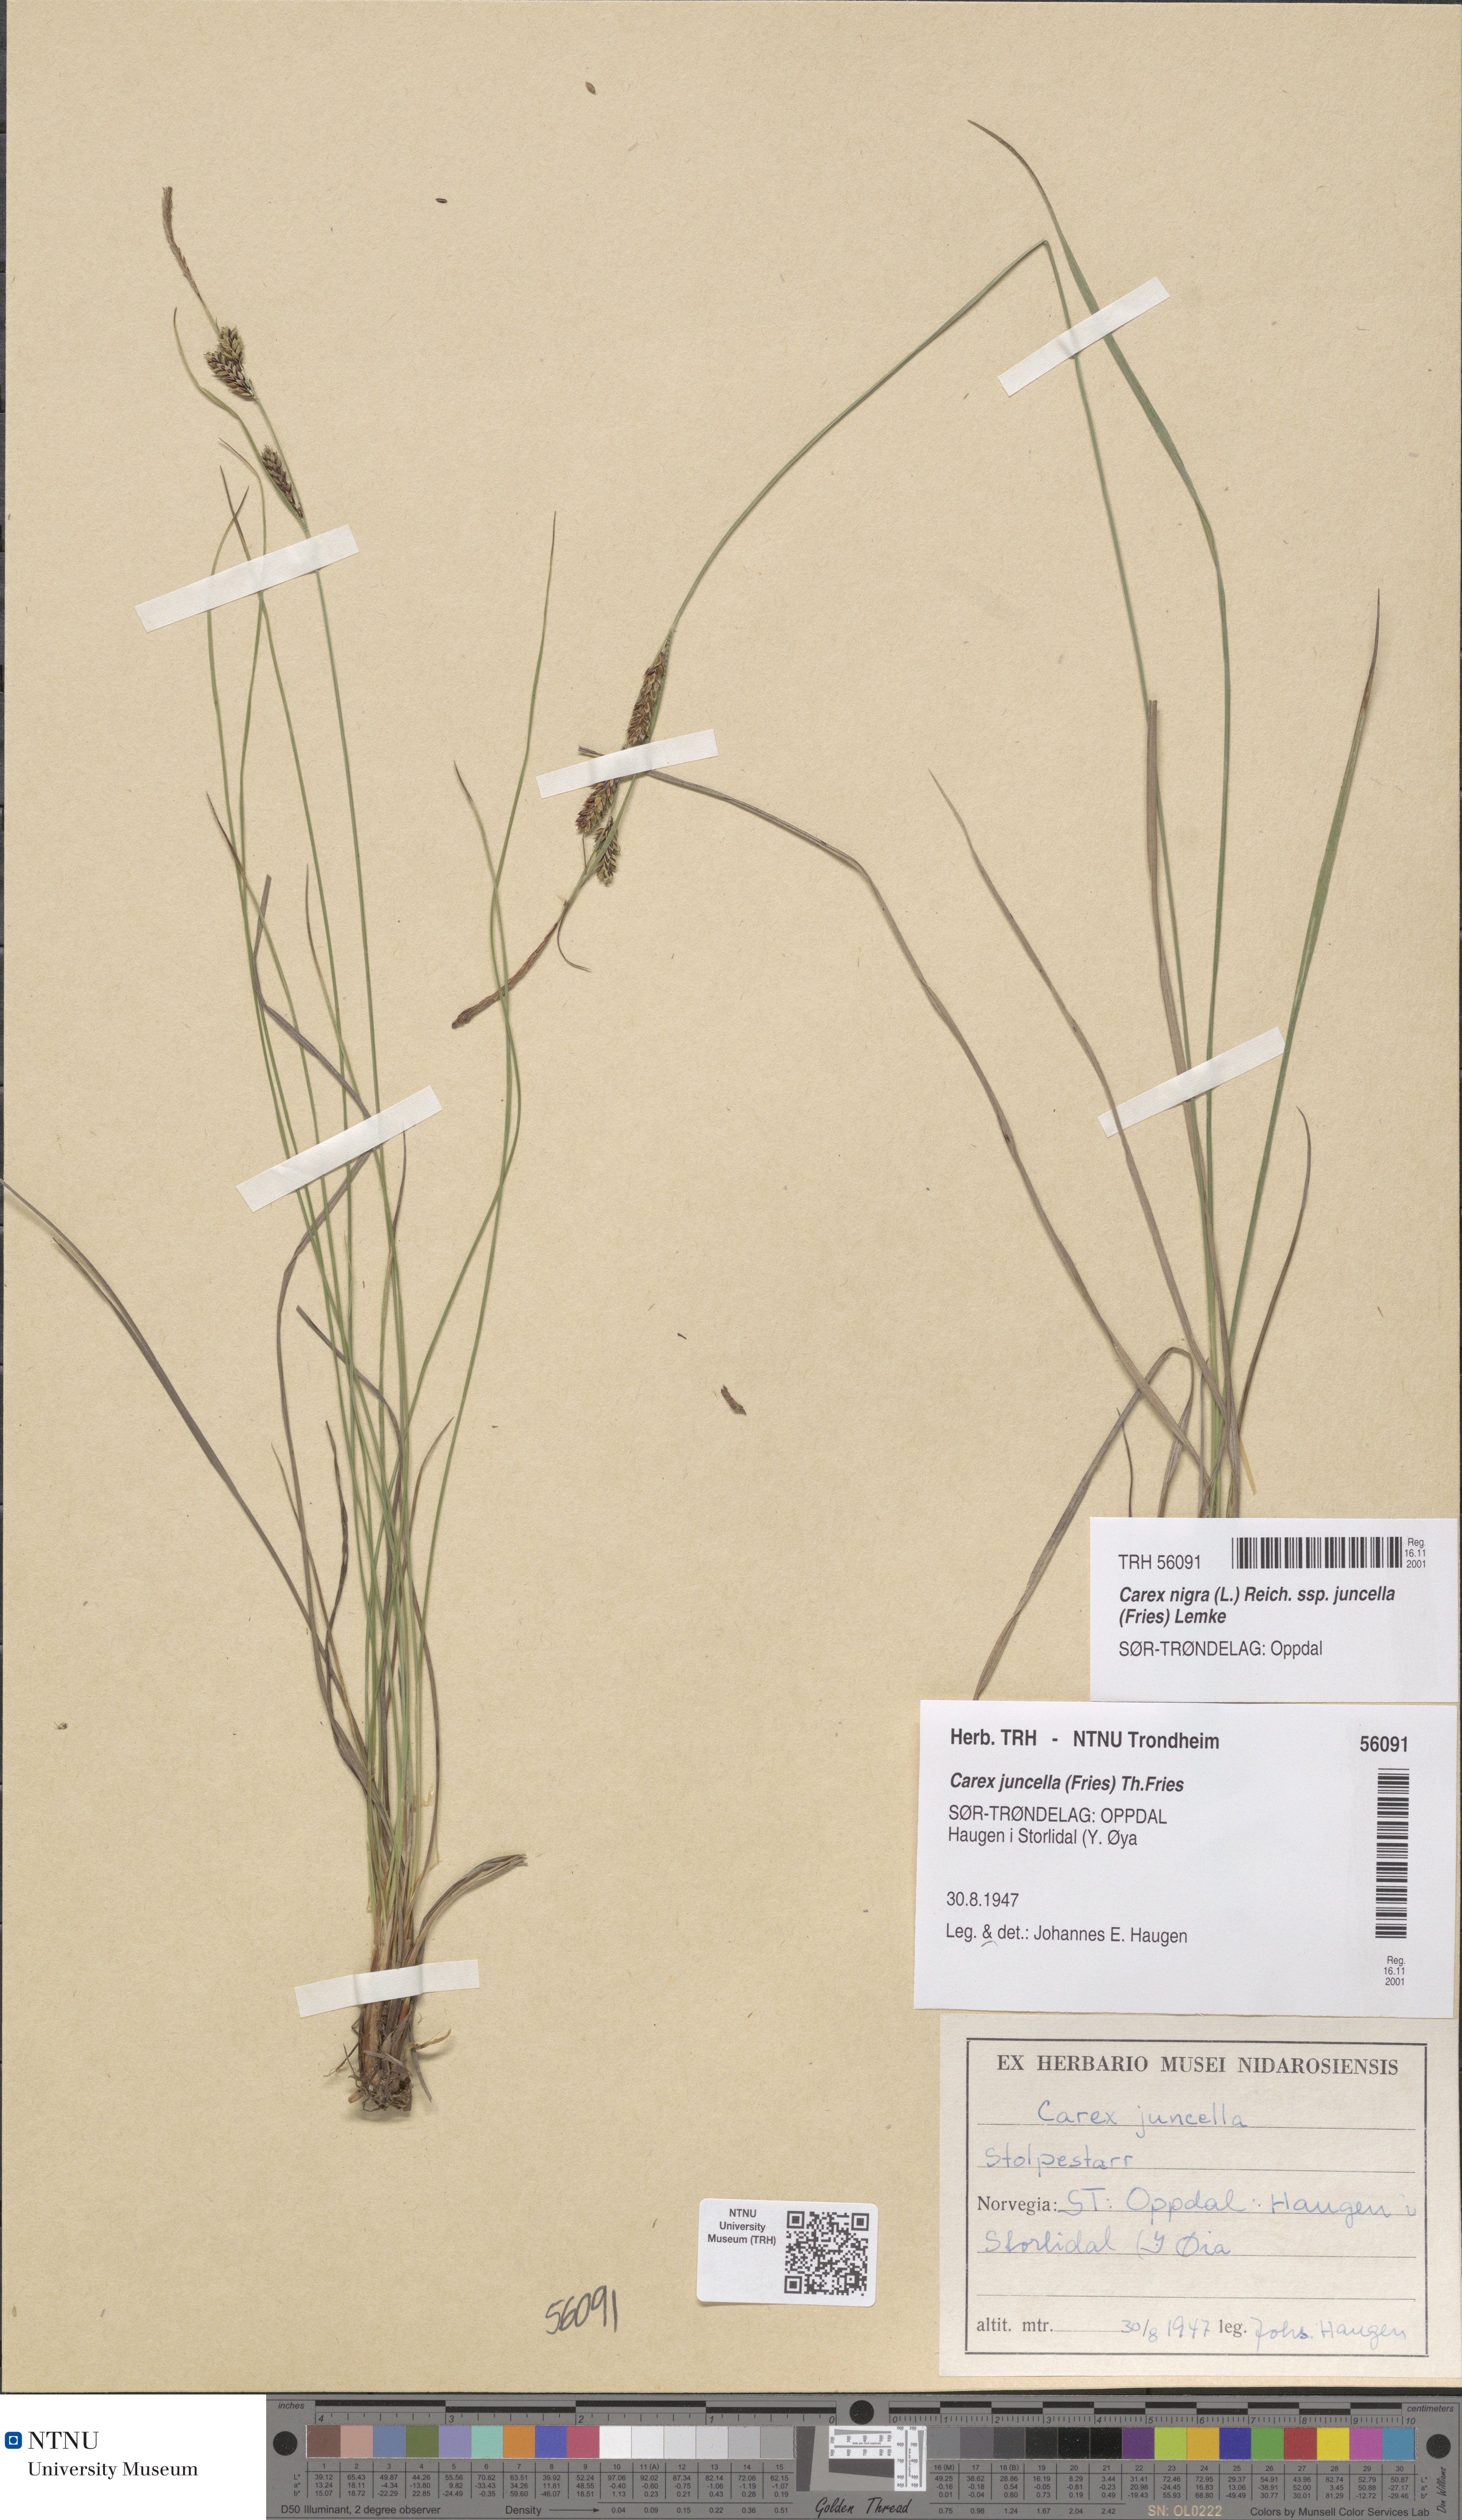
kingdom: Plantae
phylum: Tracheophyta
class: Liliopsida
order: Poales
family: Cyperaceae
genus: Carex
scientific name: Carex nigra
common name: Common sedge
